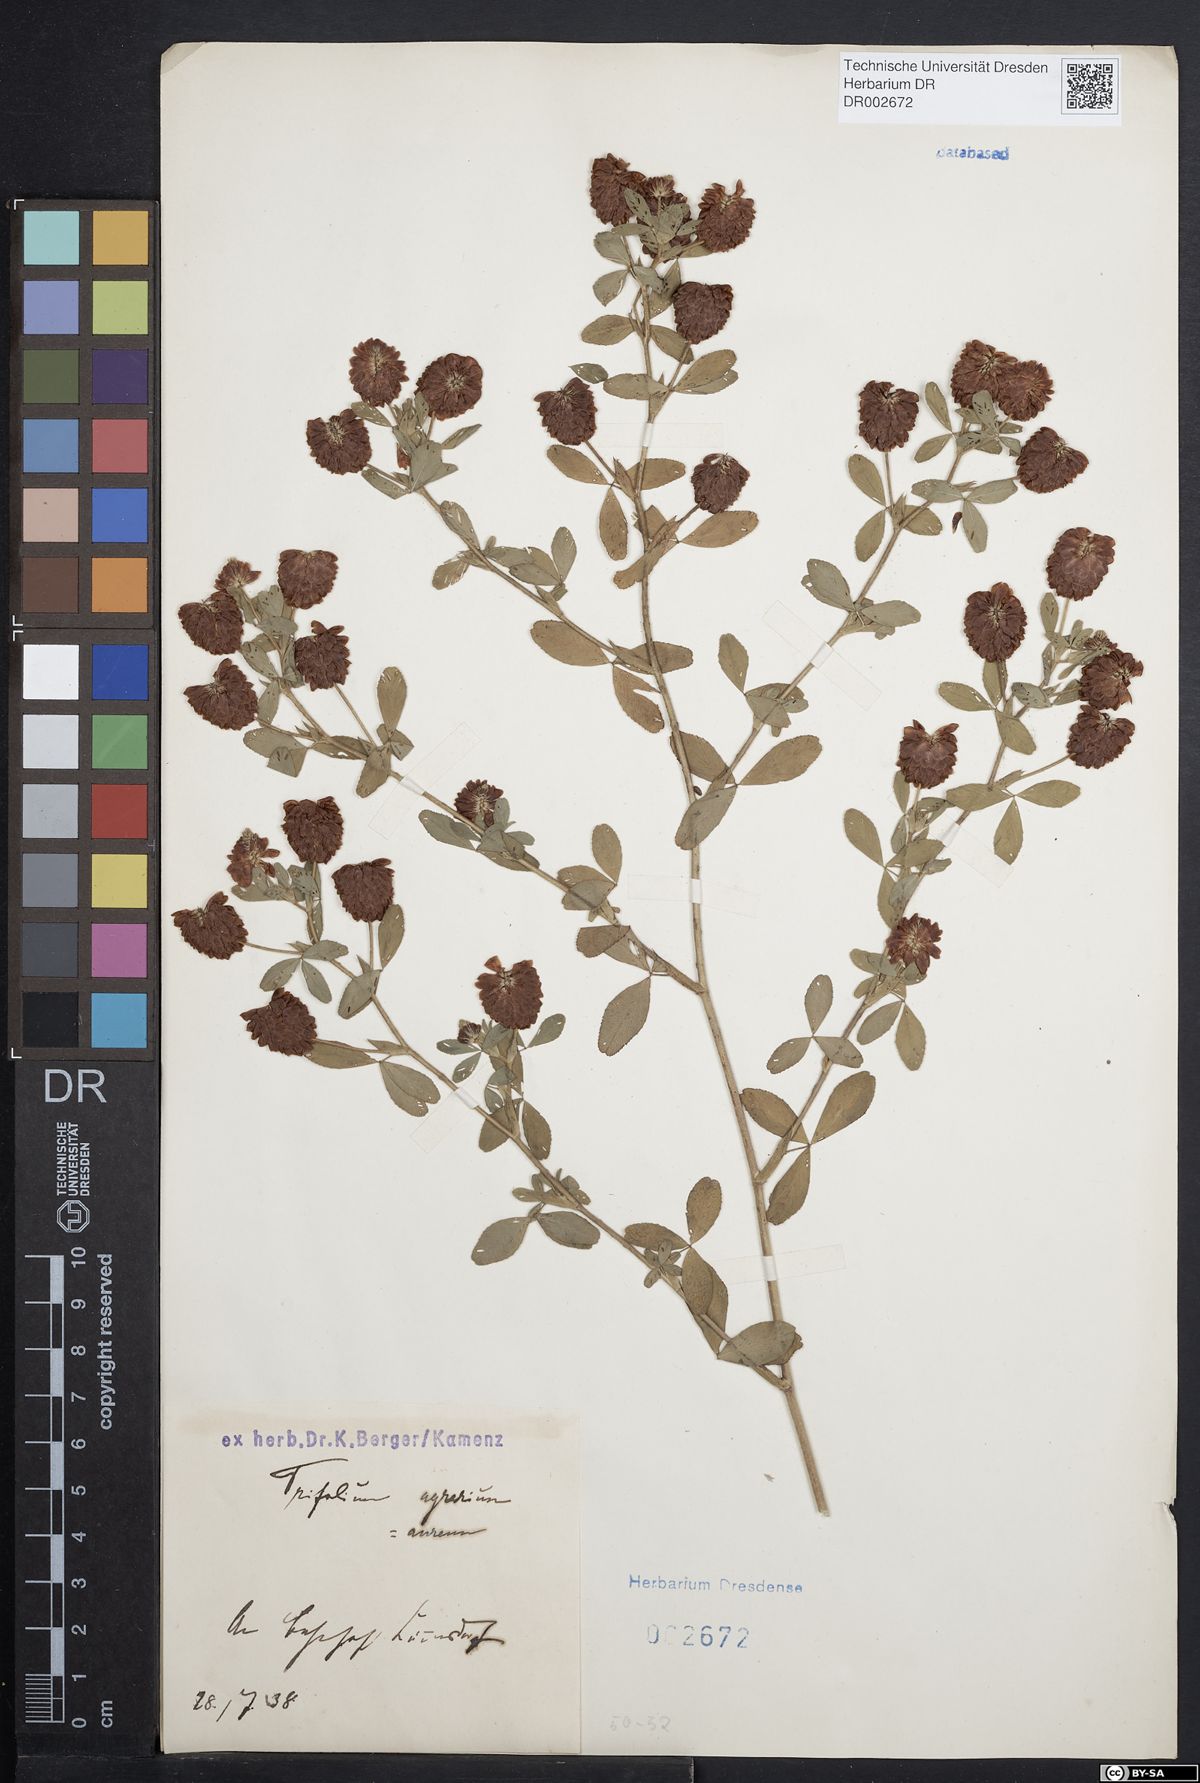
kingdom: Plantae
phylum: Tracheophyta
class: Magnoliopsida
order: Fabales
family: Fabaceae
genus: Trifolium
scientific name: Trifolium aureum
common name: Golden clover
